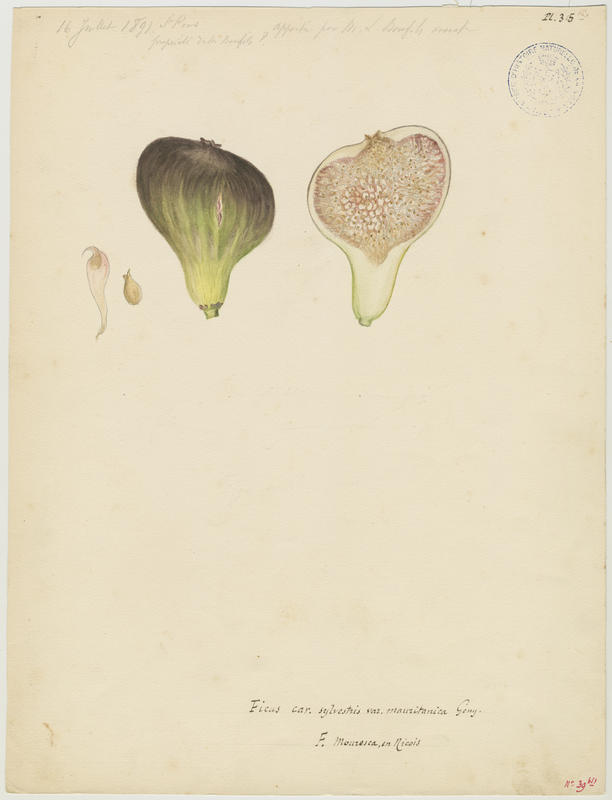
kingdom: Plantae
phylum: Tracheophyta
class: Magnoliopsida
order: Rosales
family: Moraceae
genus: Ficus
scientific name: Ficus carica
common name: Fig
